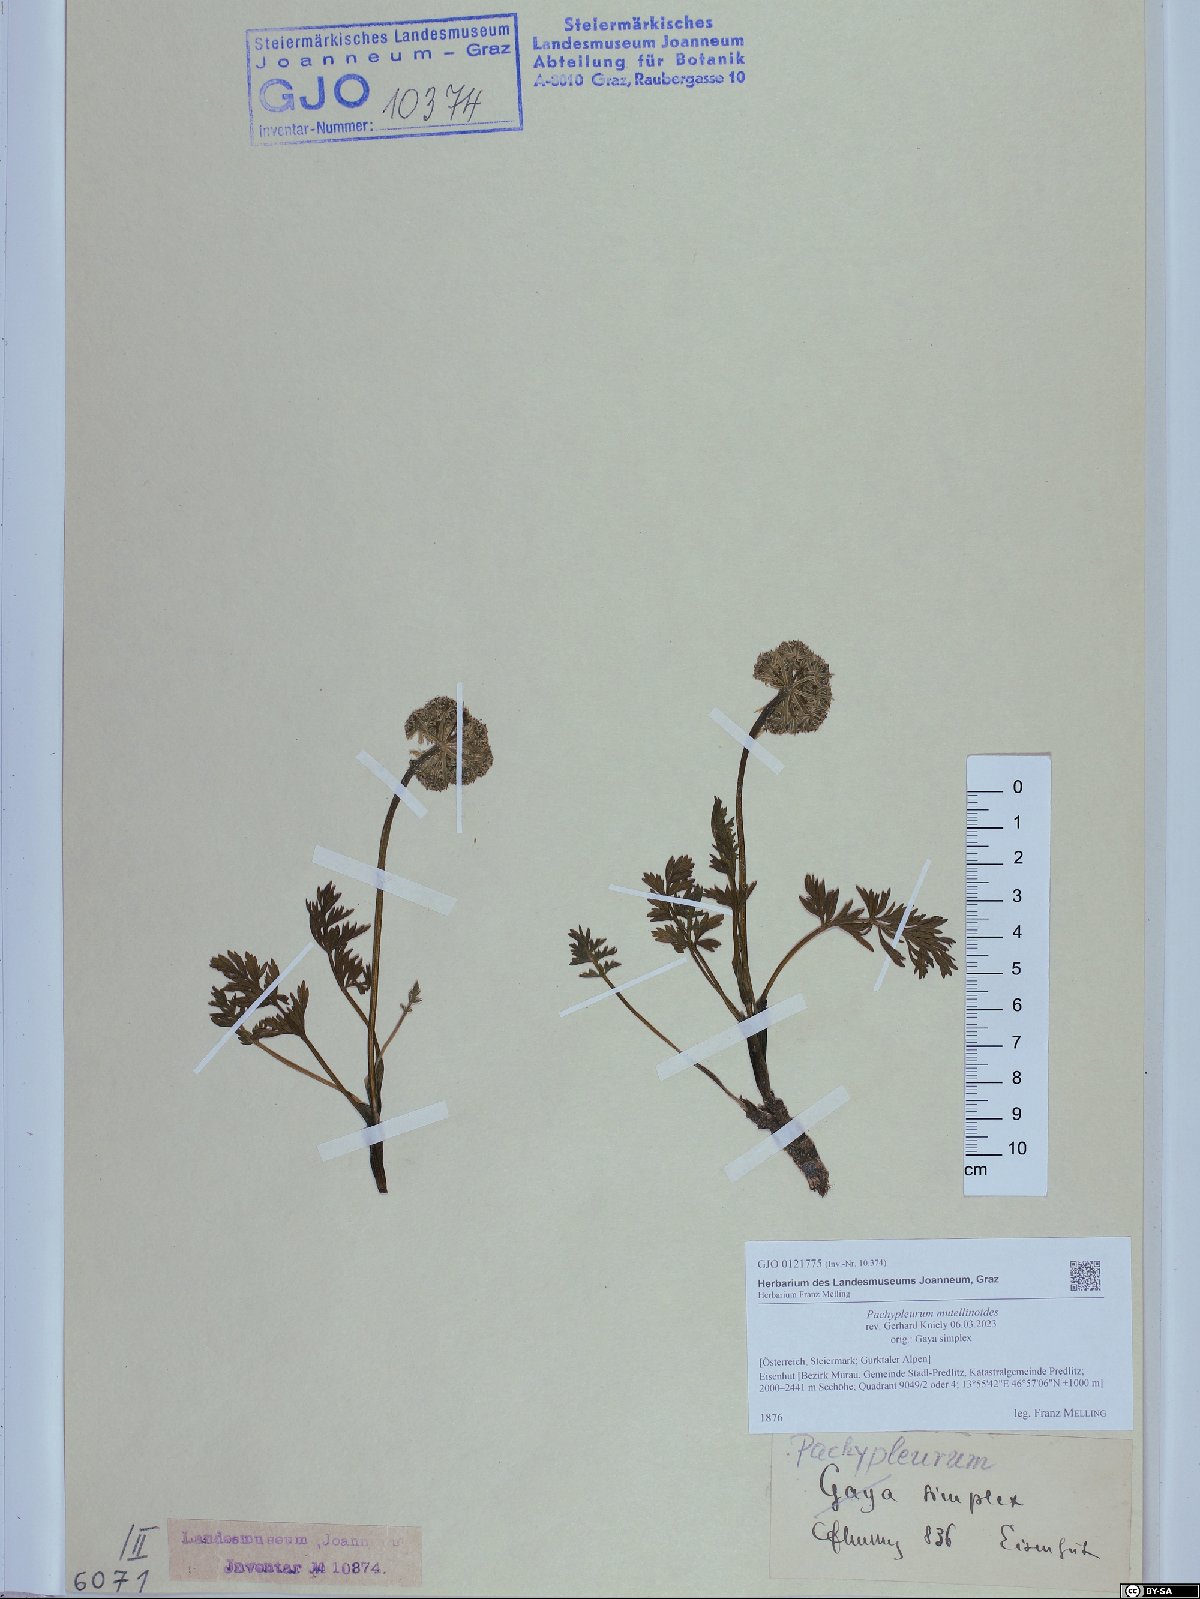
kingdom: Plantae
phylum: Tracheophyta
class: Magnoliopsida
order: Apiales
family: Apiaceae
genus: Pachypleurum
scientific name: Pachypleurum mutellinoides
